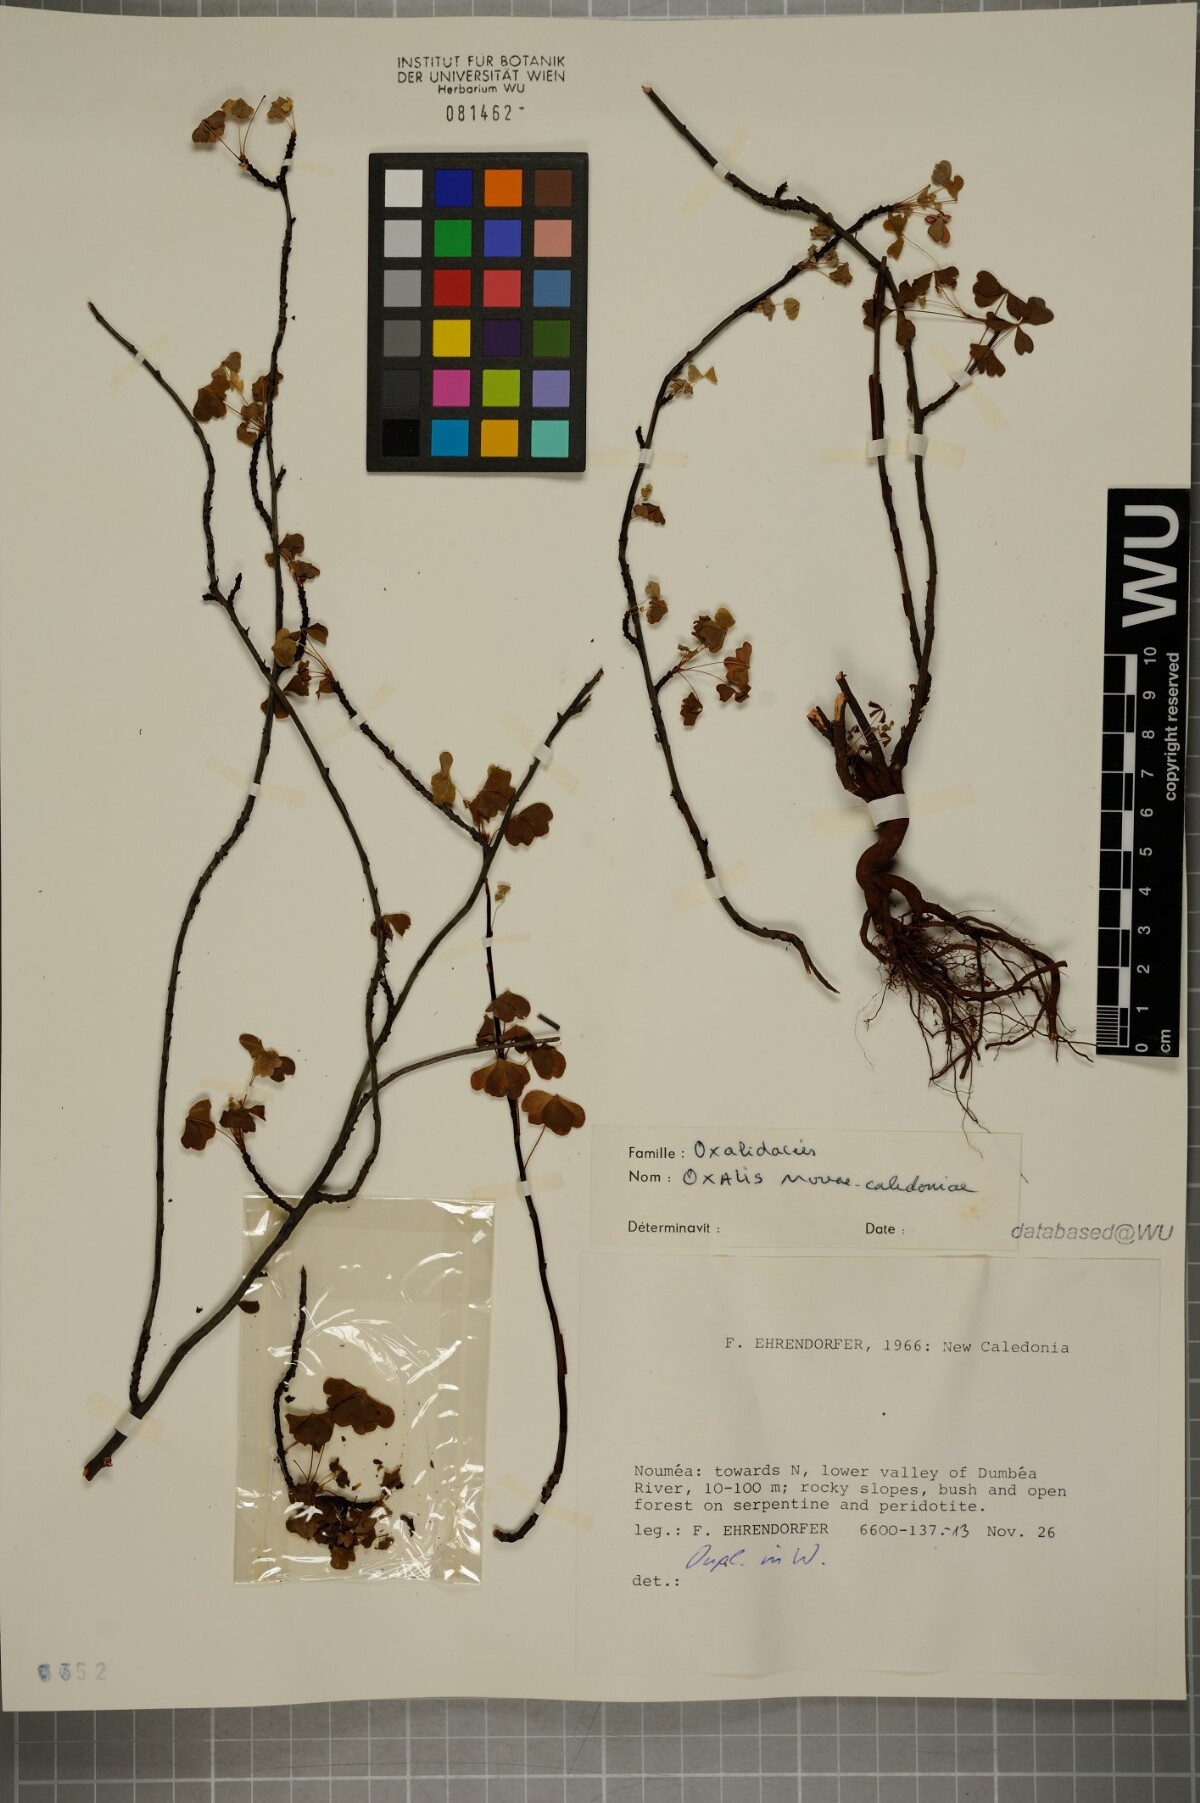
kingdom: Plantae
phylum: Tracheophyta
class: Magnoliopsida
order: Oxalidales
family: Oxalidaceae
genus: Oxalis
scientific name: Oxalis novae-caledoniae
